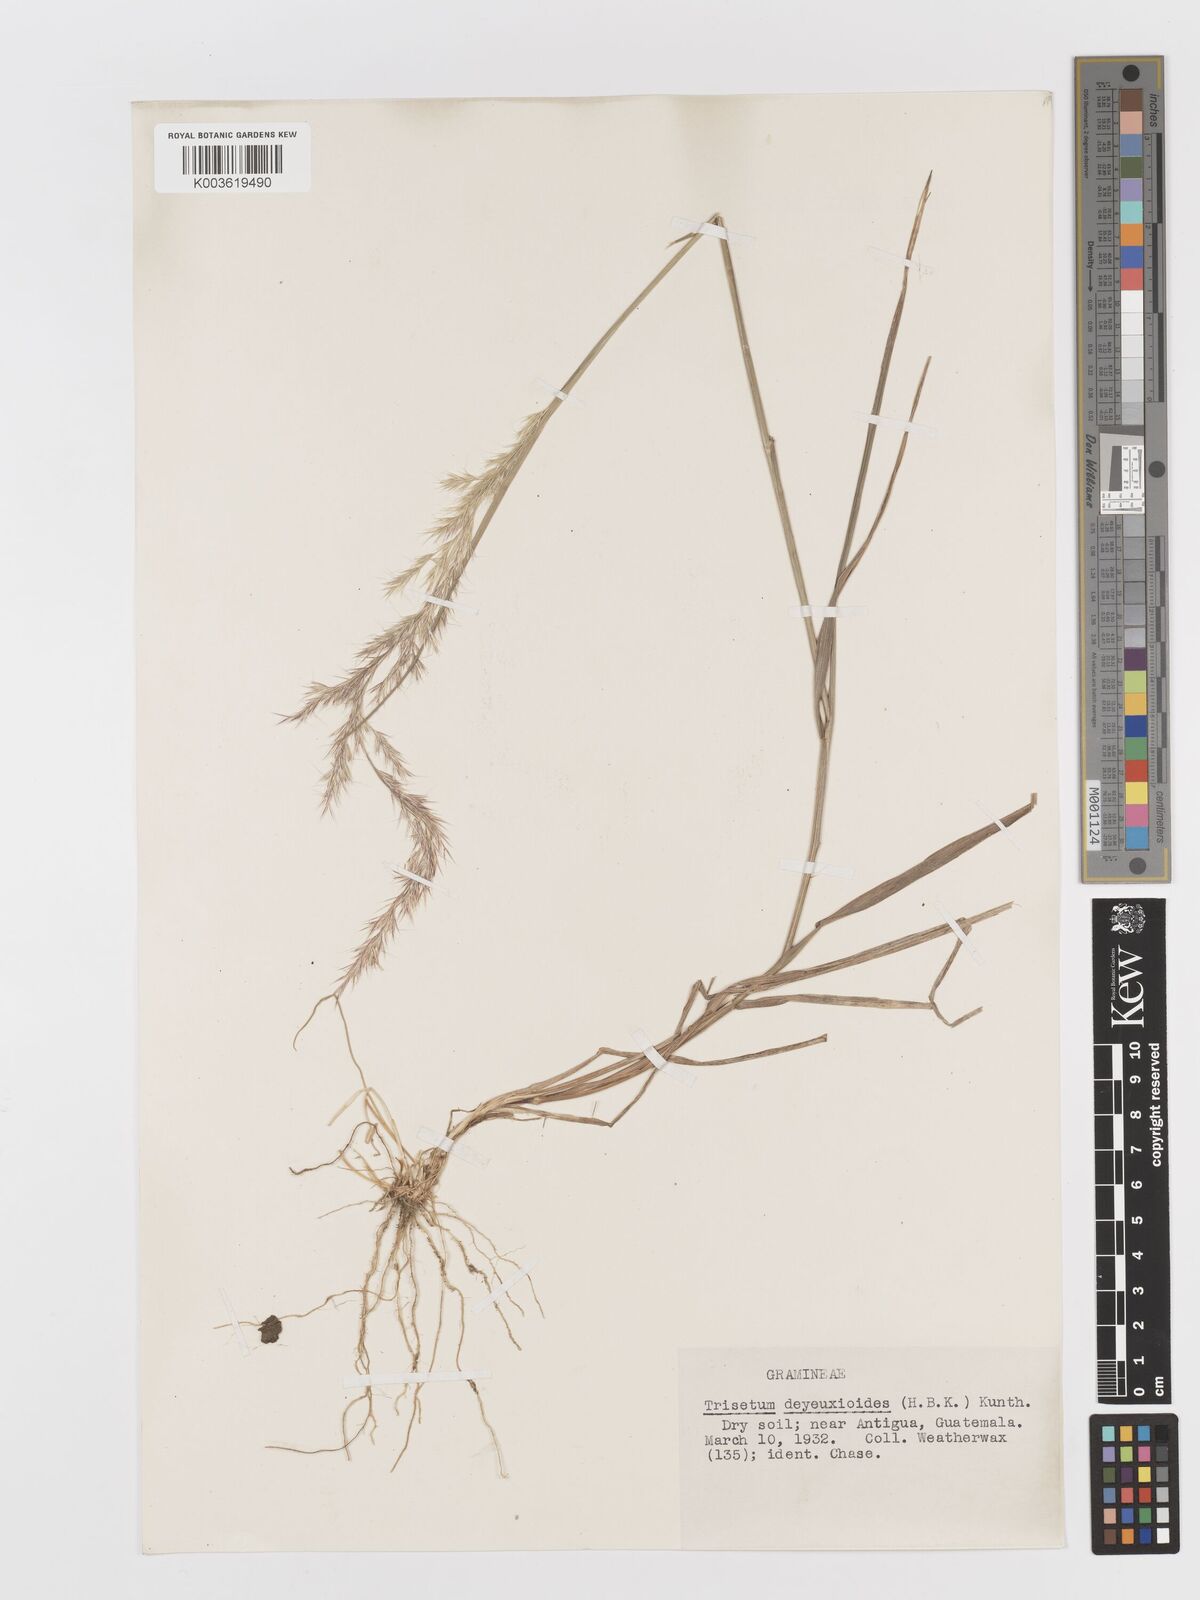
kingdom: Plantae
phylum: Tracheophyta
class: Liliopsida
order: Poales
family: Poaceae
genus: Peyritschia
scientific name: Peyritschia deyeuxioides
